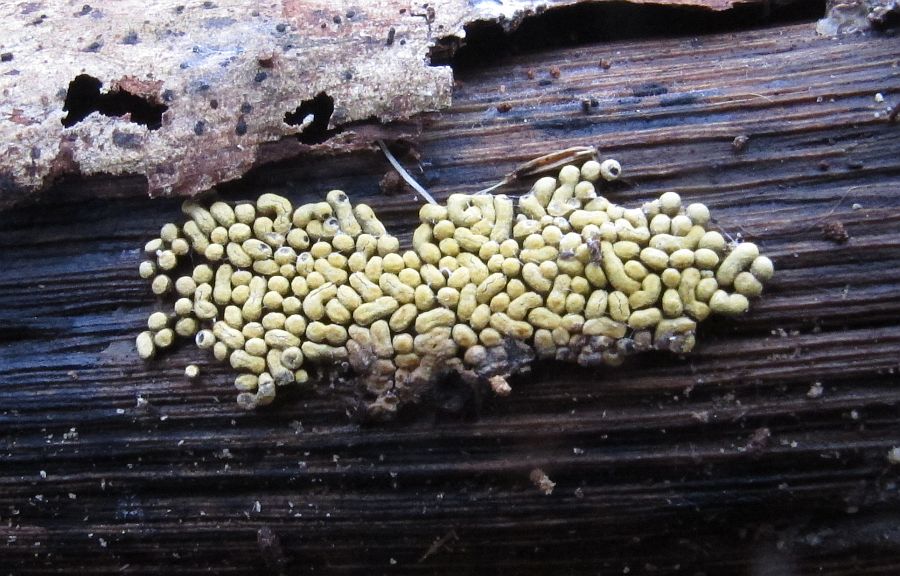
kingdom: Protozoa
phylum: Mycetozoa
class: Myxomycetes
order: Physarales
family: Physaraceae
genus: Physarum
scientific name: Physarum contextum
